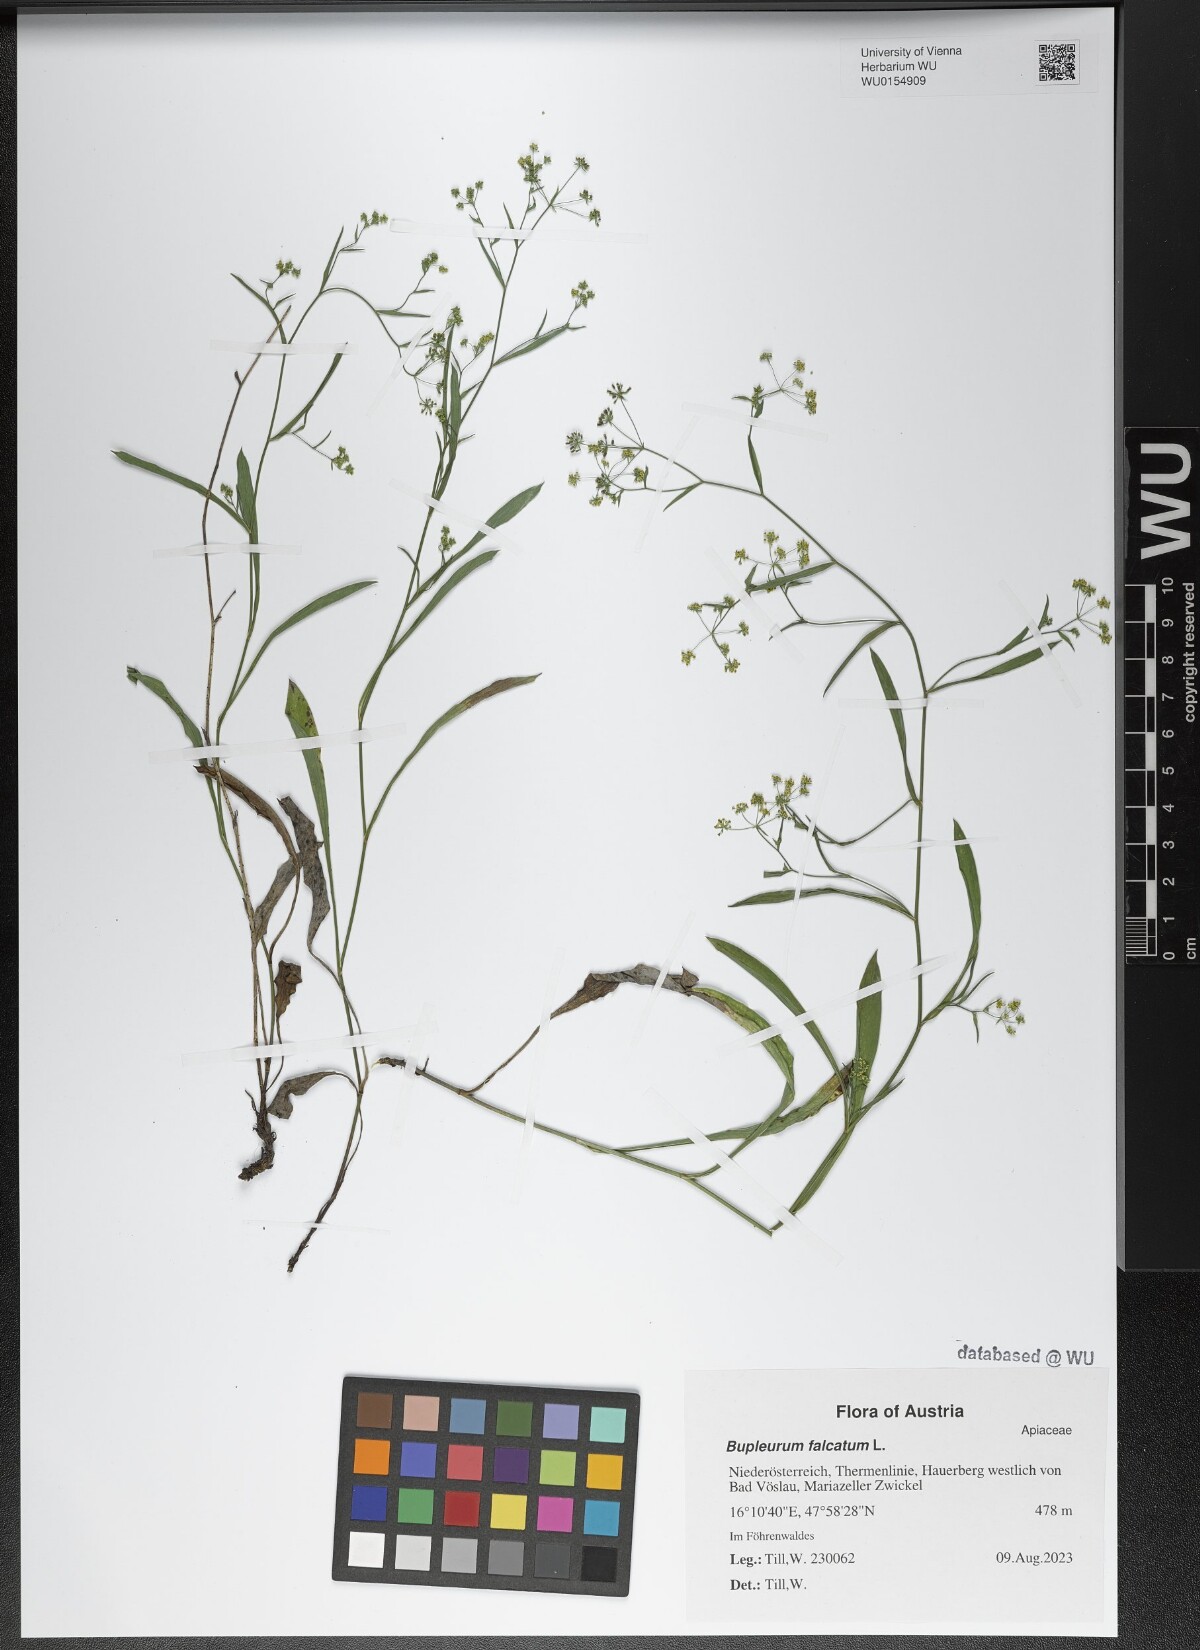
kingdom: Plantae
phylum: Tracheophyta
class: Magnoliopsida
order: Apiales
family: Apiaceae
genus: Bupleurum
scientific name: Bupleurum falcatum
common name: Sickle-leaved hare's-ear
